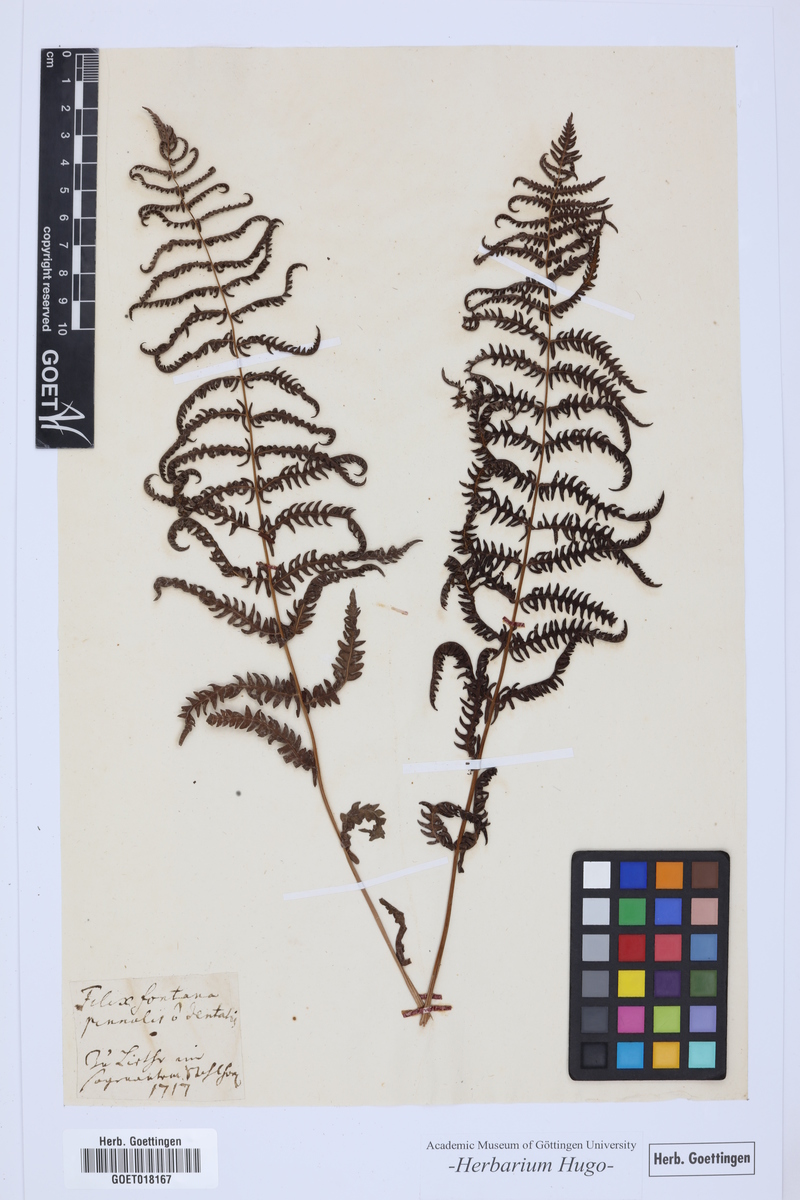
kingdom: Plantae
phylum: Tracheophyta
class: Polypodiopsida
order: Polypodiales
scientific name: Polypodiales
